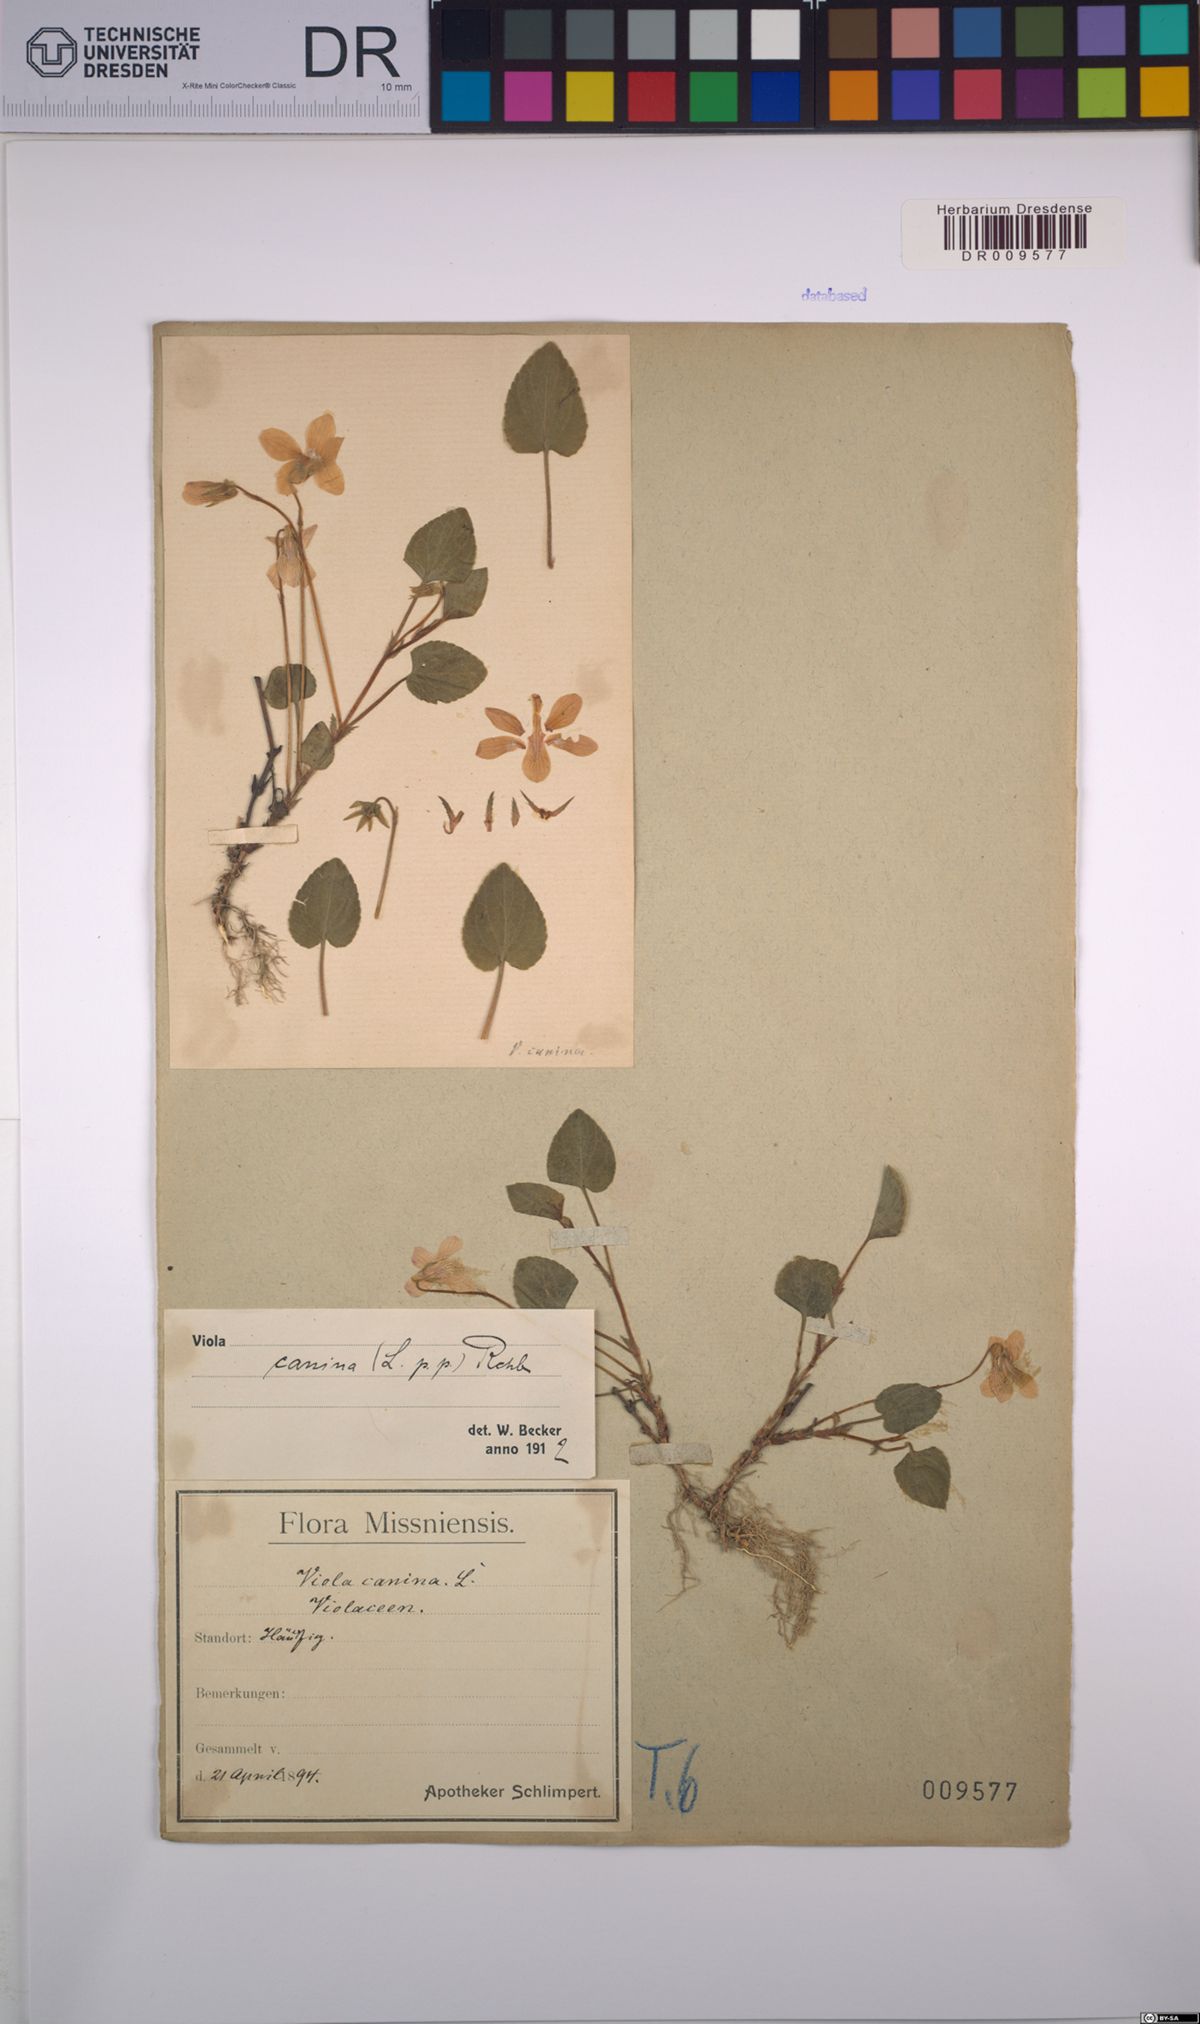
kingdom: Plantae
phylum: Tracheophyta
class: Magnoliopsida
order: Malpighiales
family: Violaceae
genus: Viola
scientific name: Viola canina
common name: Heath dog-violet
